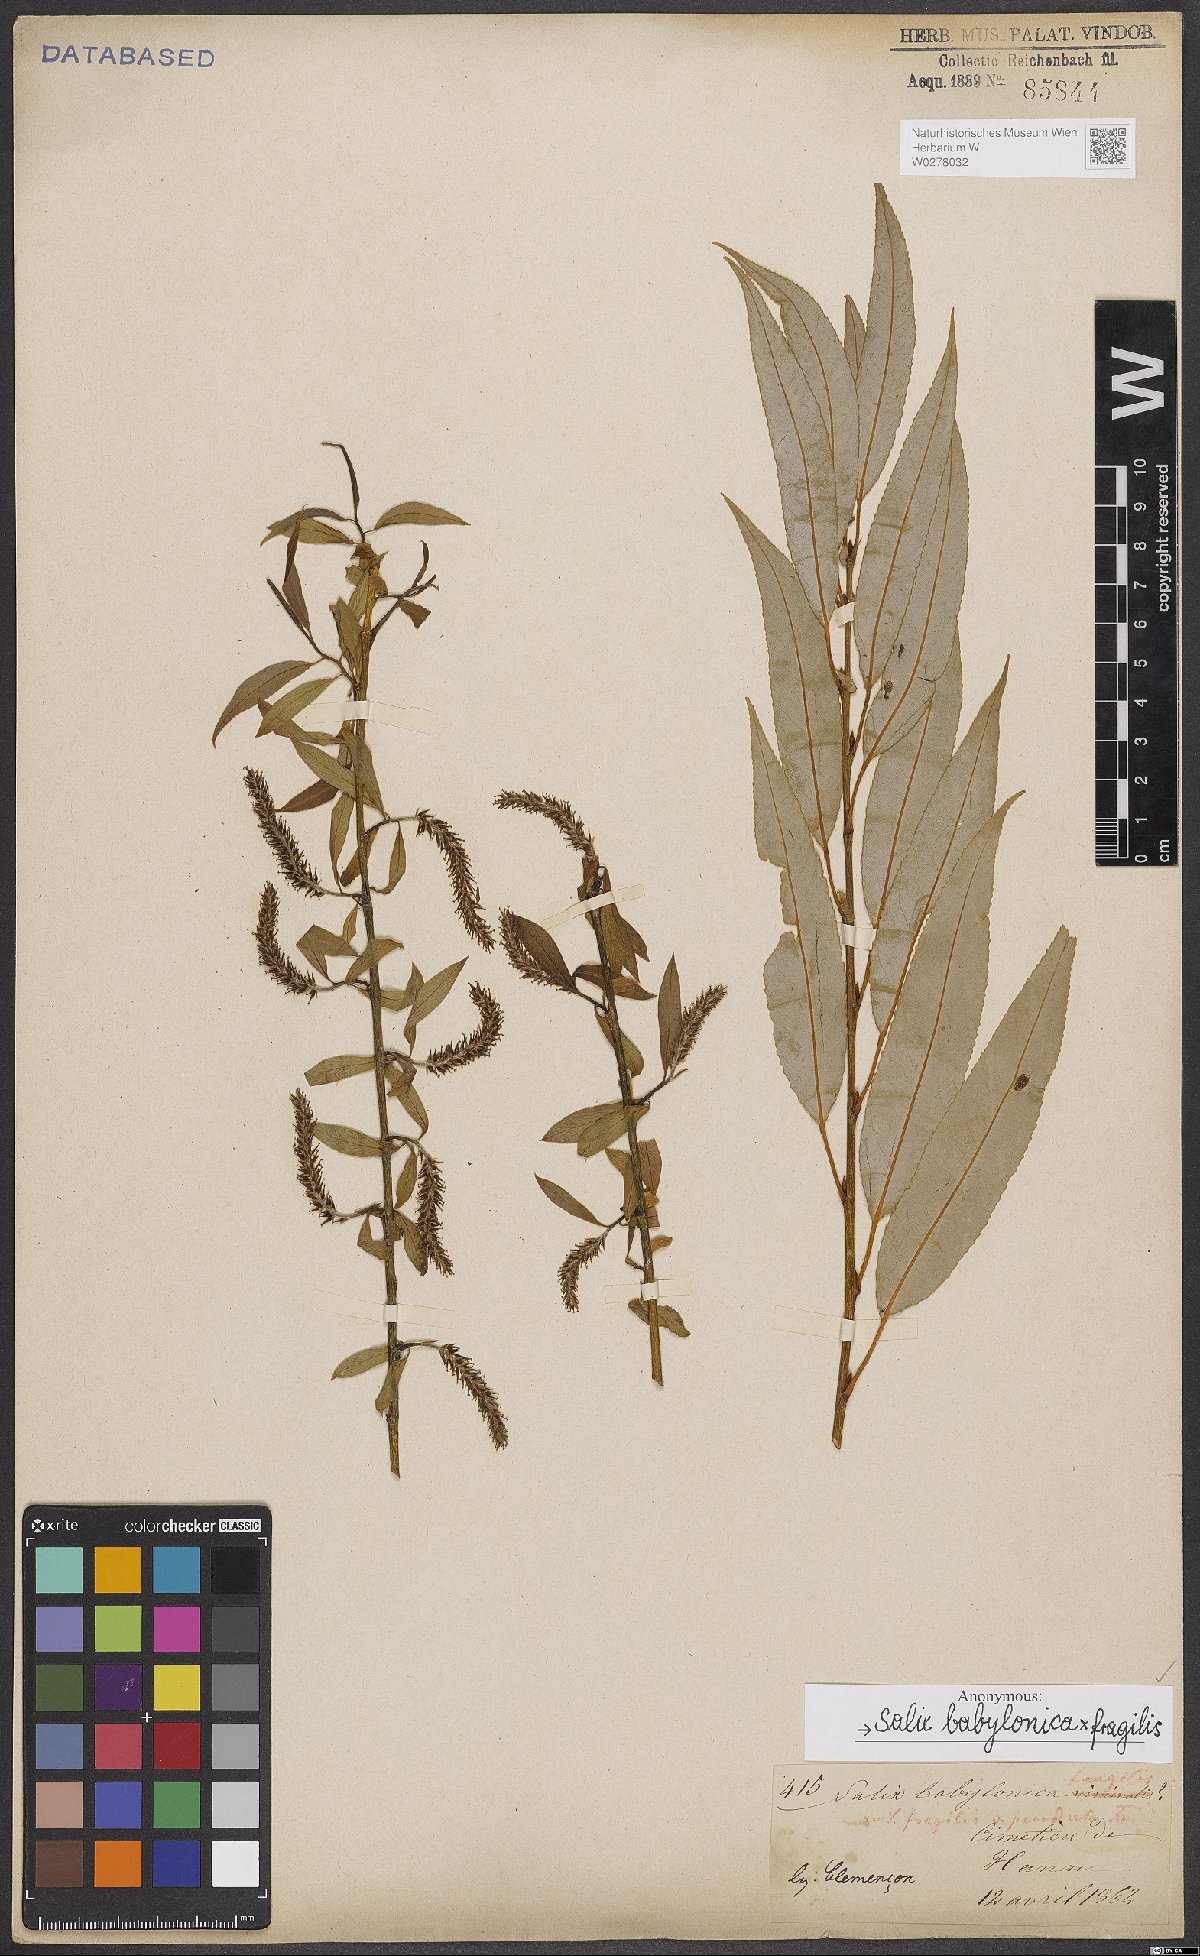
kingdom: Plantae
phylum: Tracheophyta
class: Magnoliopsida
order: Malpighiales
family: Salicaceae
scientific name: Salicaceae
